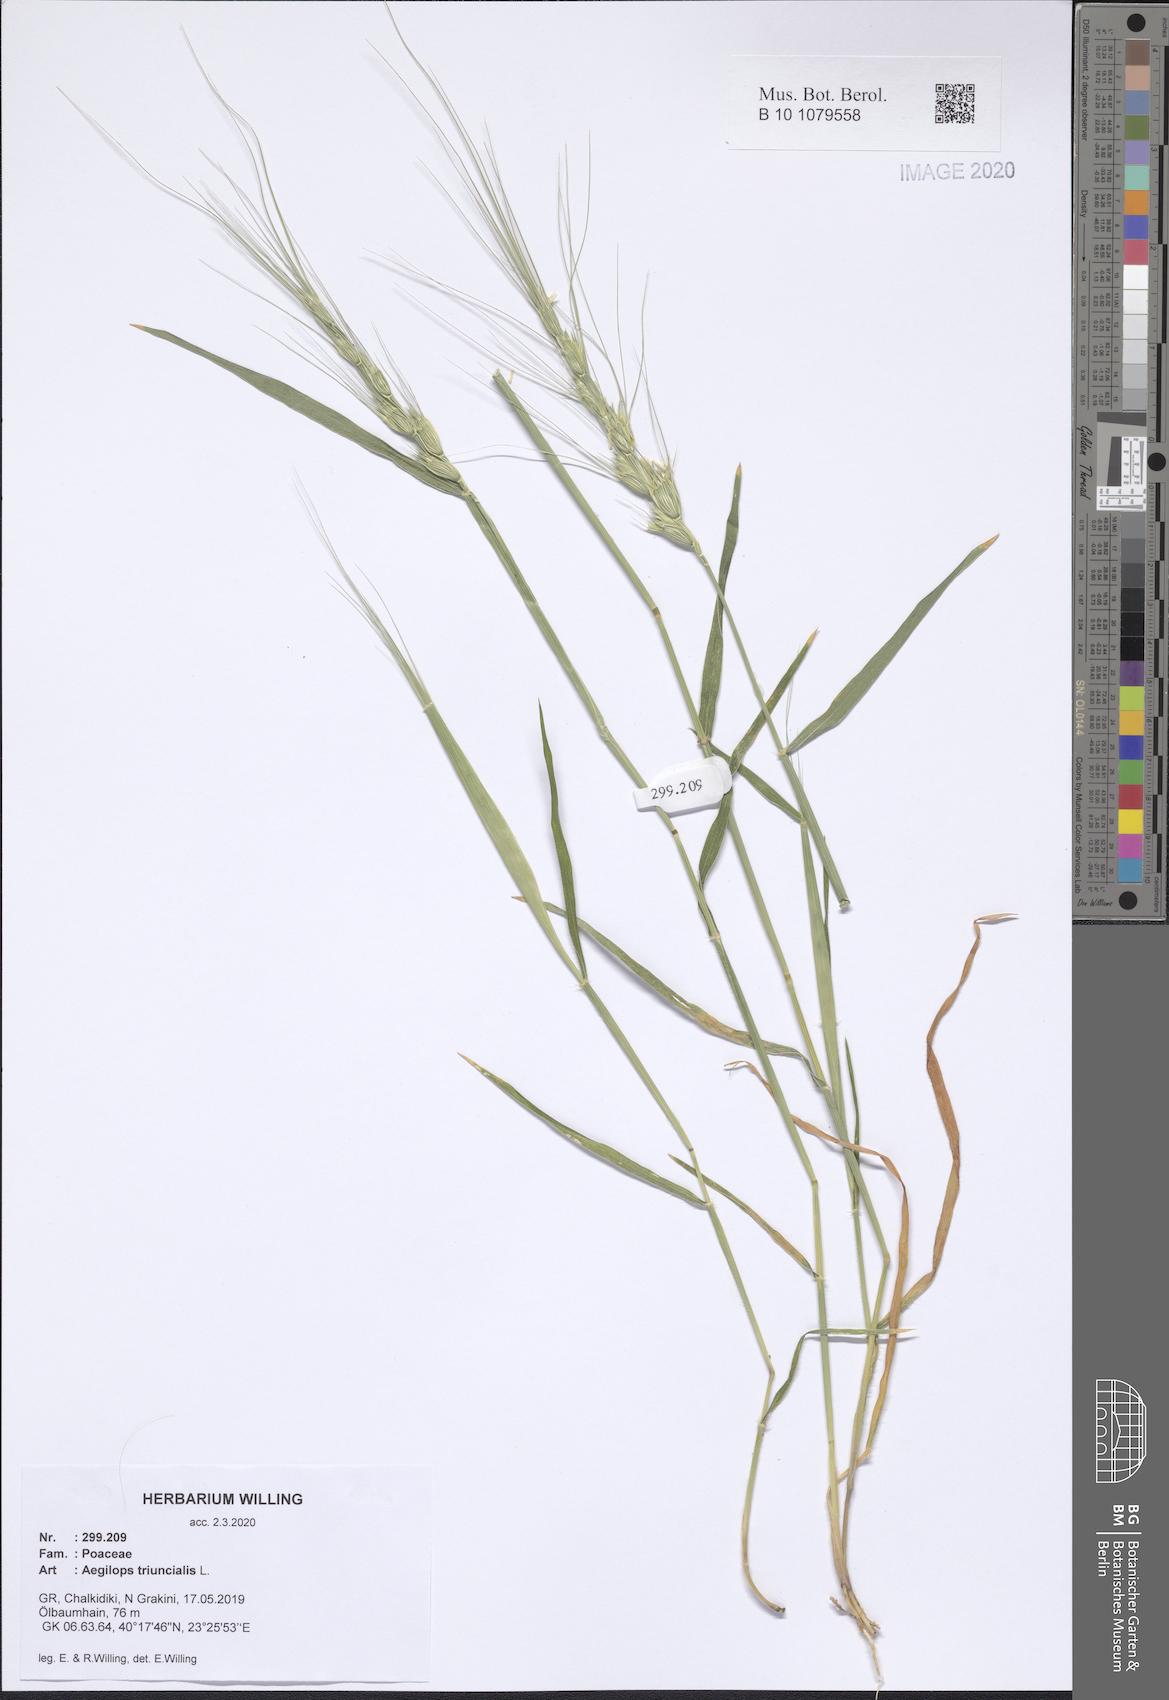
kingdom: Plantae
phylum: Tracheophyta
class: Liliopsida
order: Poales
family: Poaceae
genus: Aegilops
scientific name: Aegilops triuncialis
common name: Barb goat grass
